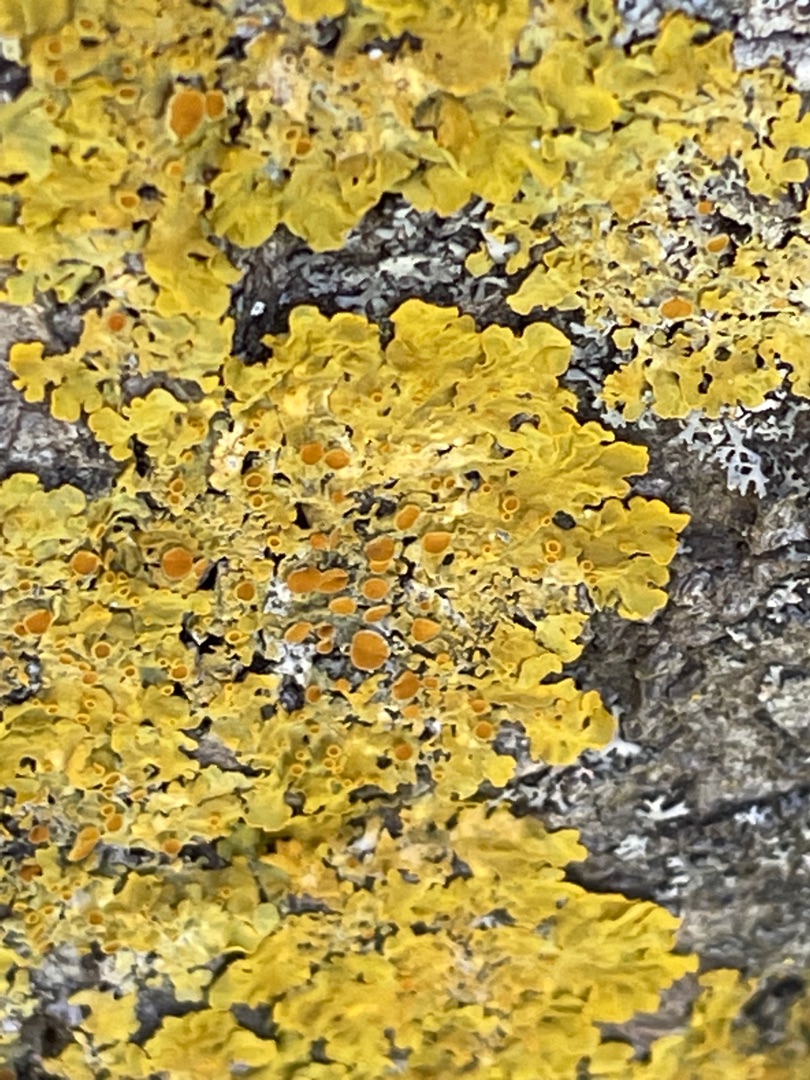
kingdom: Fungi
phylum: Ascomycota
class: Lecanoromycetes
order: Teloschistales
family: Teloschistaceae
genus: Xanthoria
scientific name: Xanthoria parietina
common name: Almindelig væggelav
